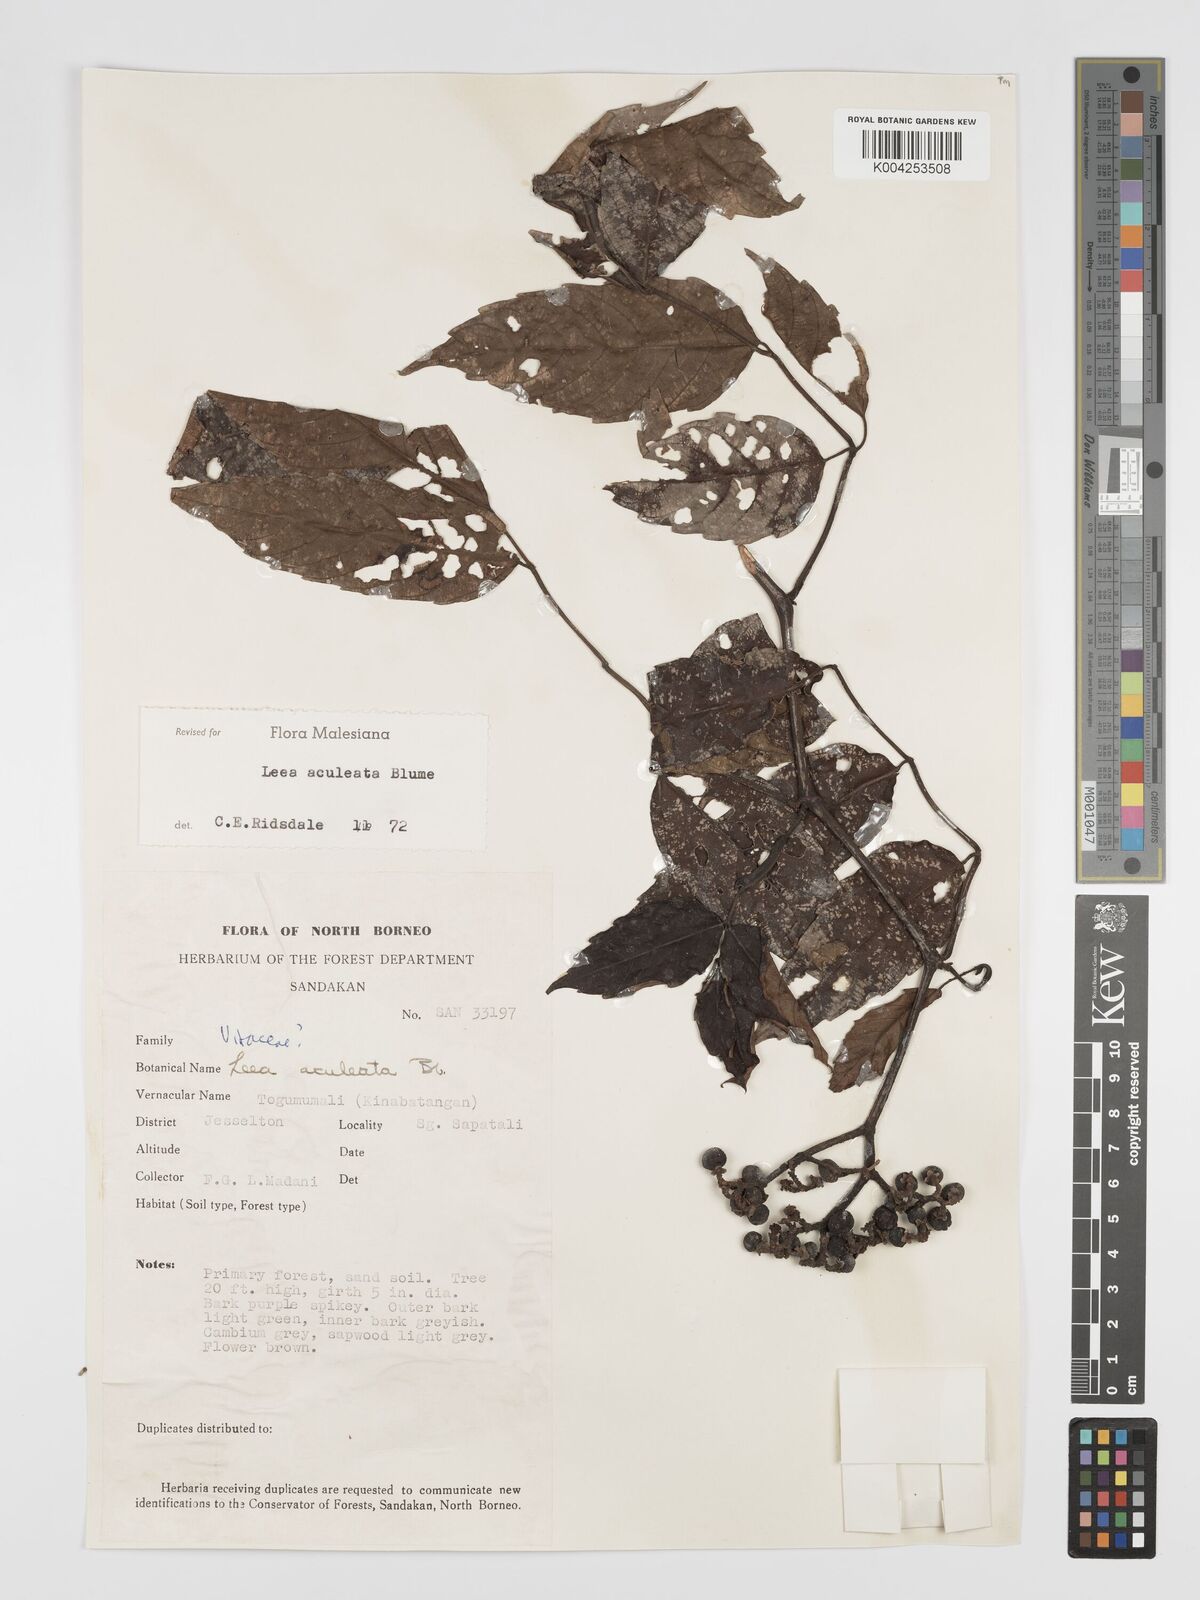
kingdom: Plantae
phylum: Tracheophyta
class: Magnoliopsida
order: Vitales
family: Vitaceae
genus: Leea
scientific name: Leea aculeata
